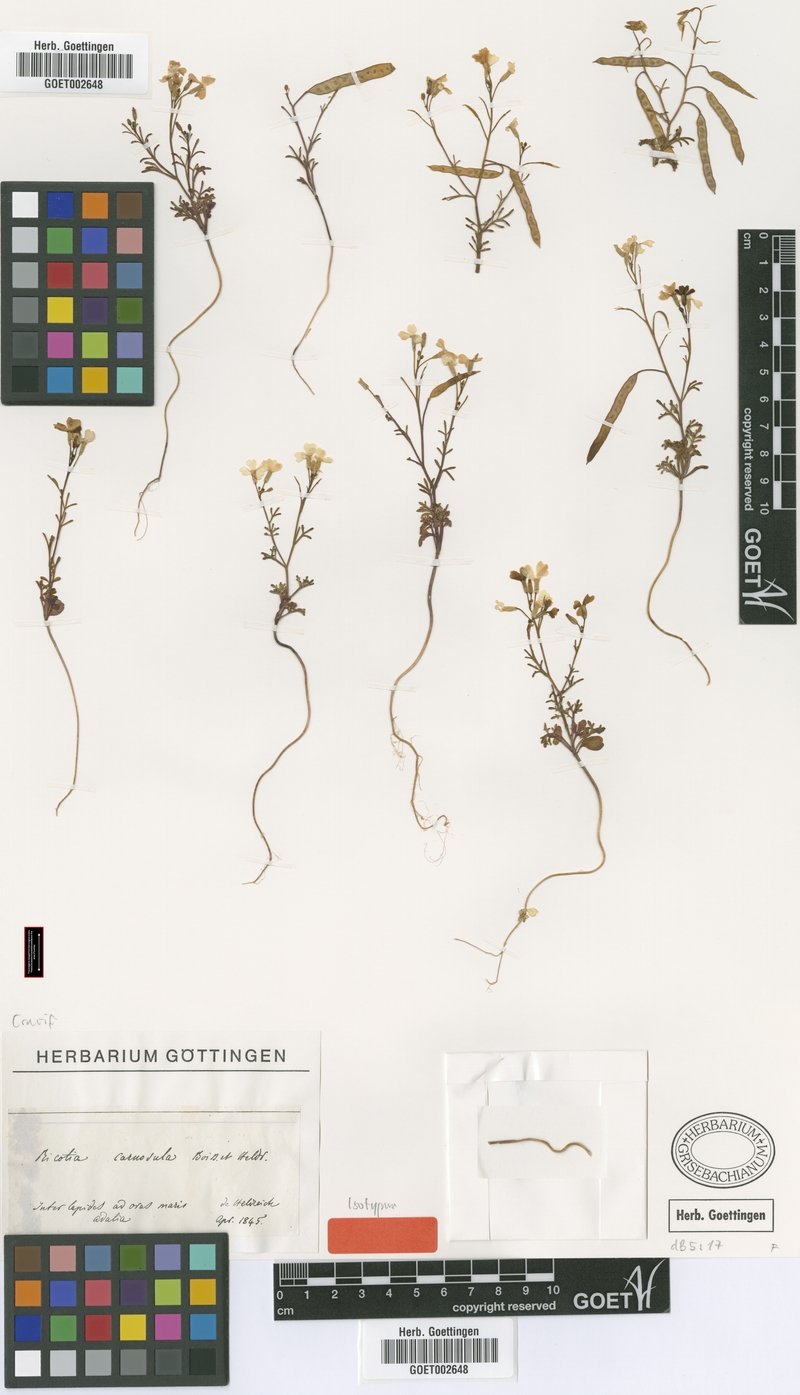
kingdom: Plantae
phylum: Tracheophyta
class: Magnoliopsida
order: Brassicales
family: Brassicaceae
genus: Ricotia
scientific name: Ricotia carnosula
